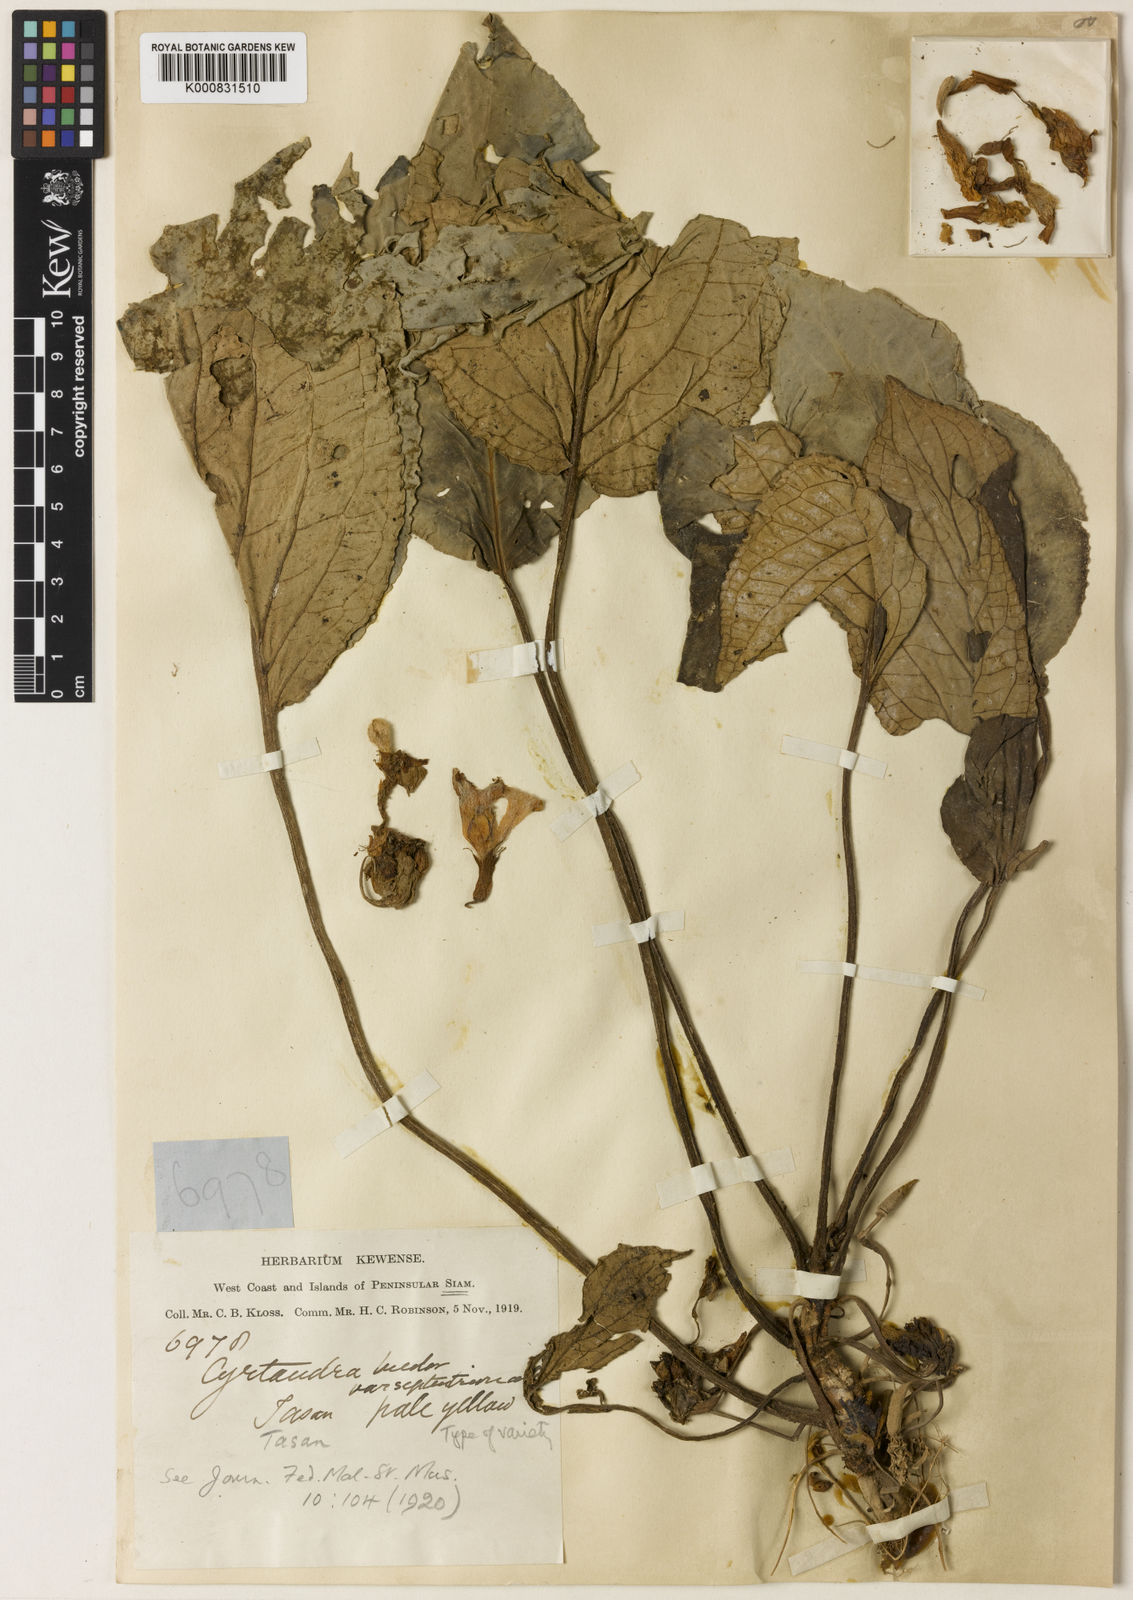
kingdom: Plantae
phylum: Tracheophyta
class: Magnoliopsida
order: Lamiales
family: Gesneriaceae
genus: Cyrtandra
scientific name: Cyrtandra bicolor
